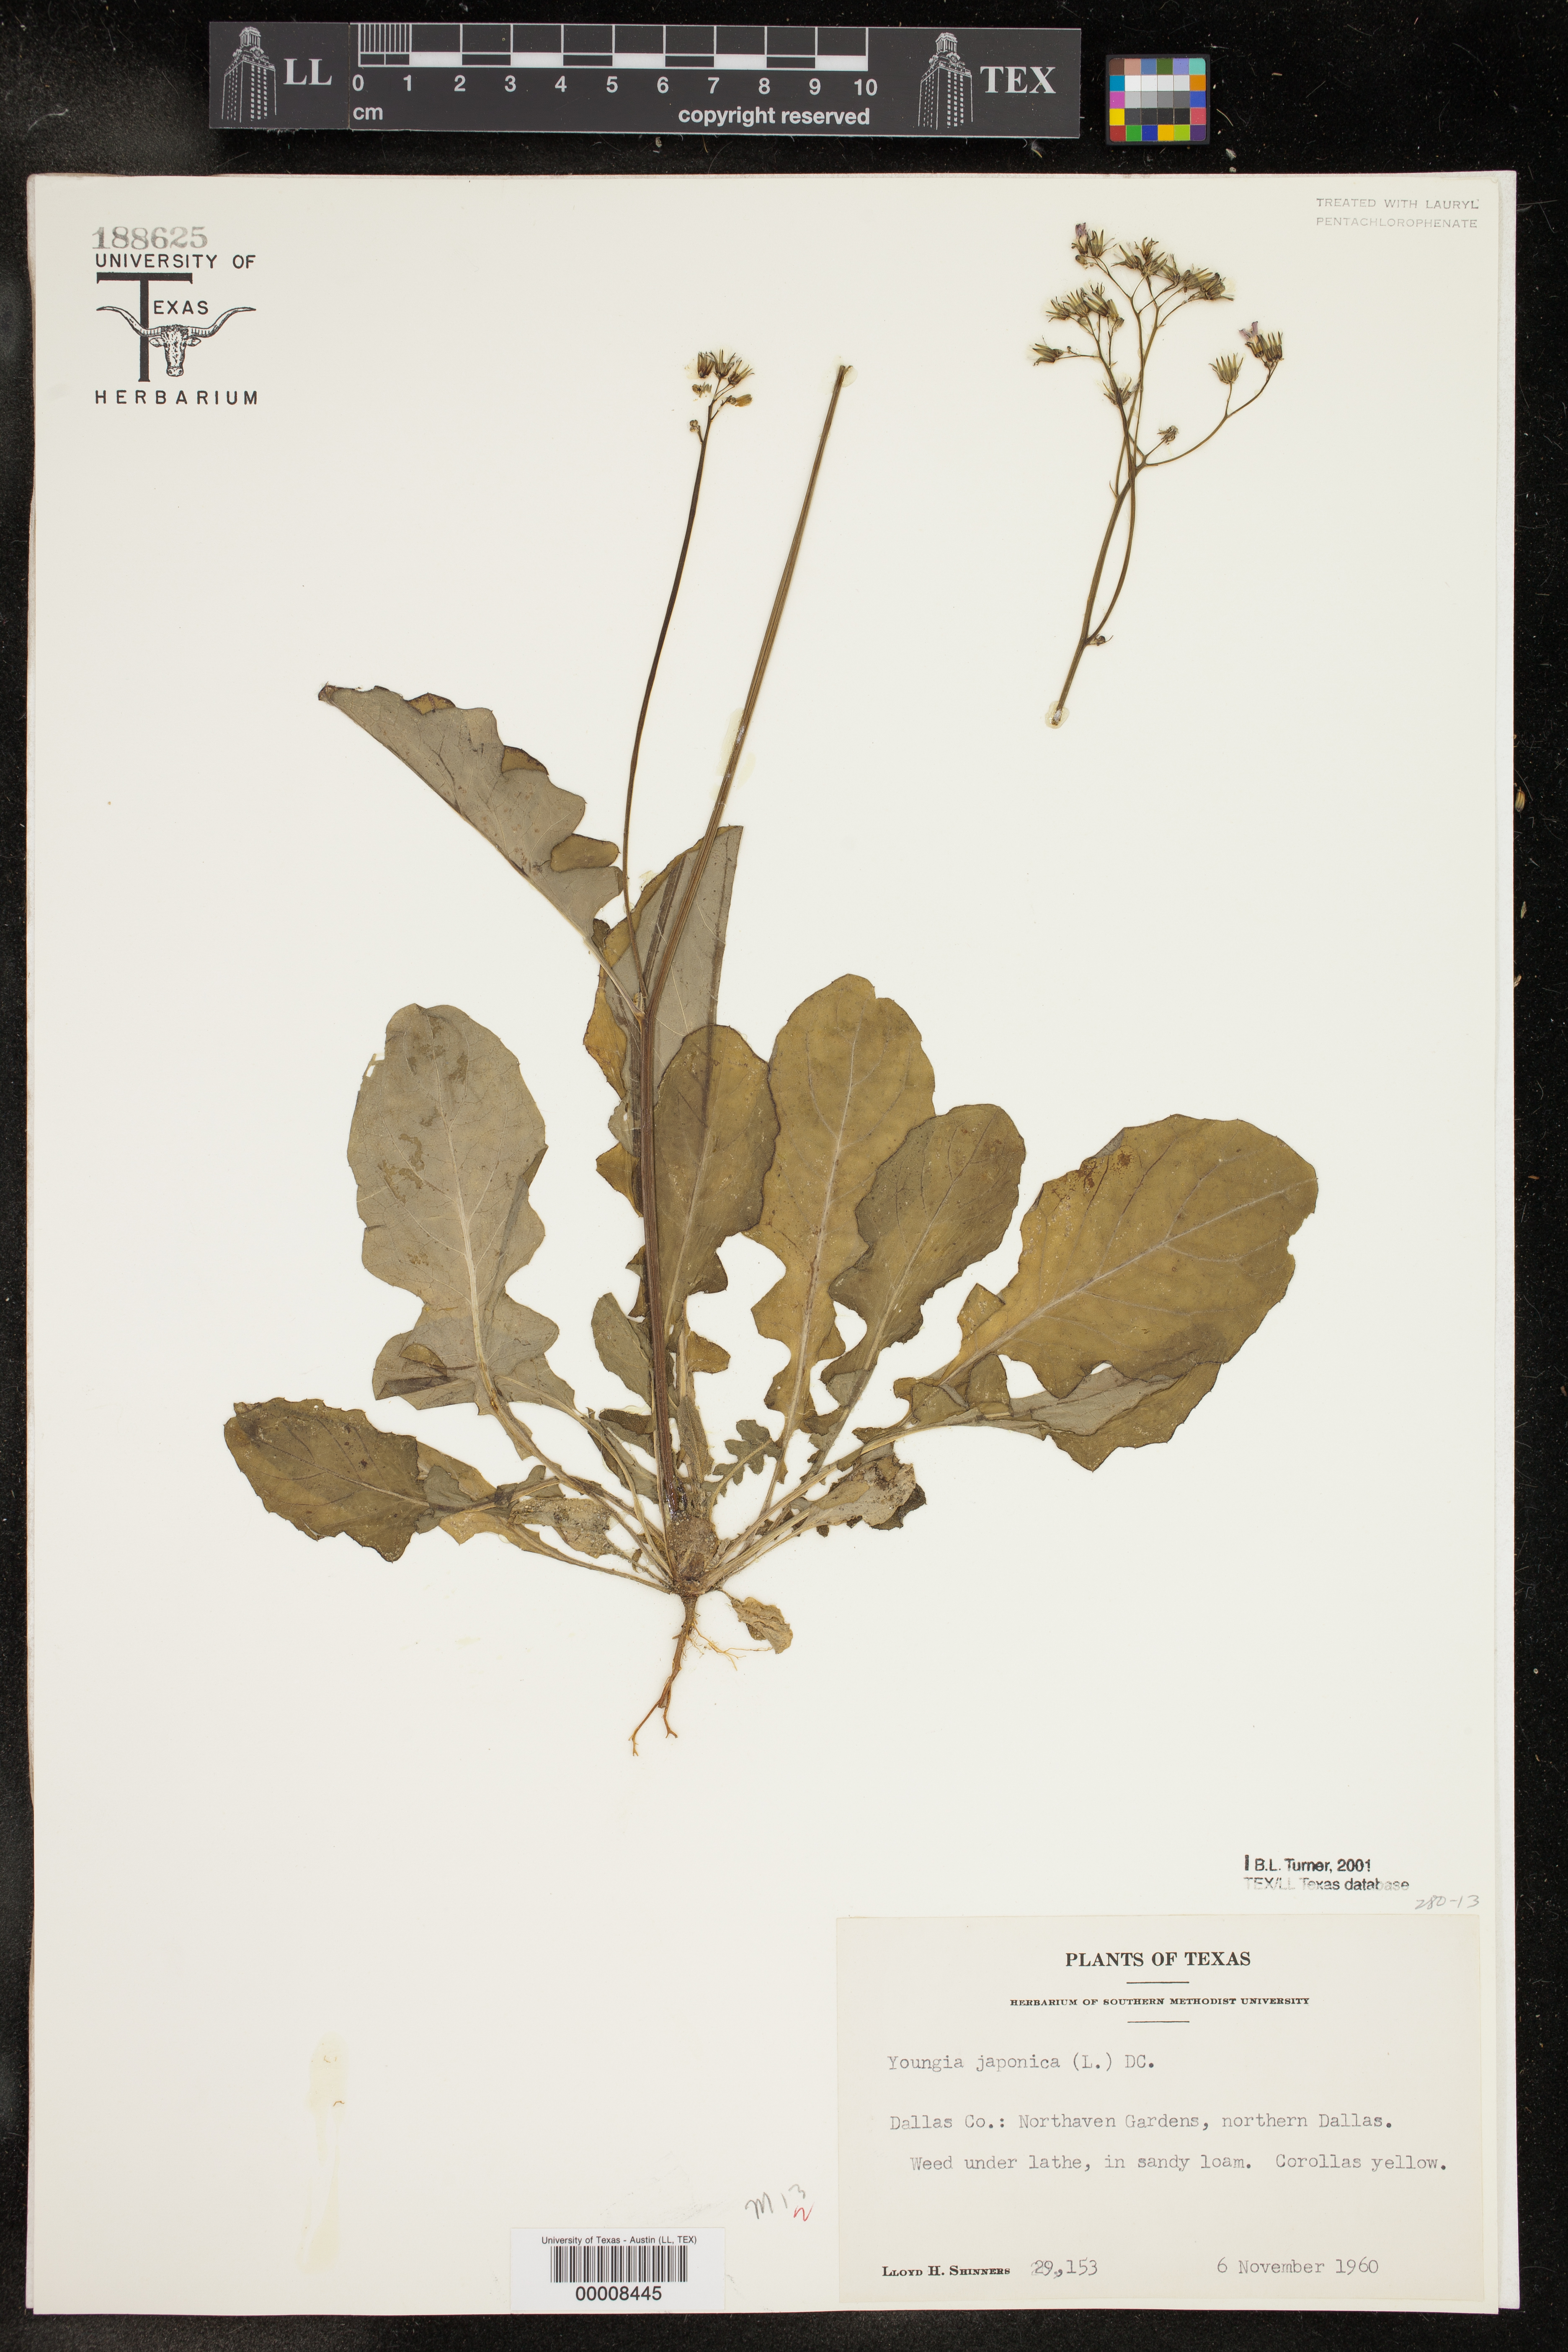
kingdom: Plantae
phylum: Tracheophyta
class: Magnoliopsida
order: Asterales
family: Asteraceae
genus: Youngia
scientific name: Youngia japonica
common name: Oriental false hawksbeard
